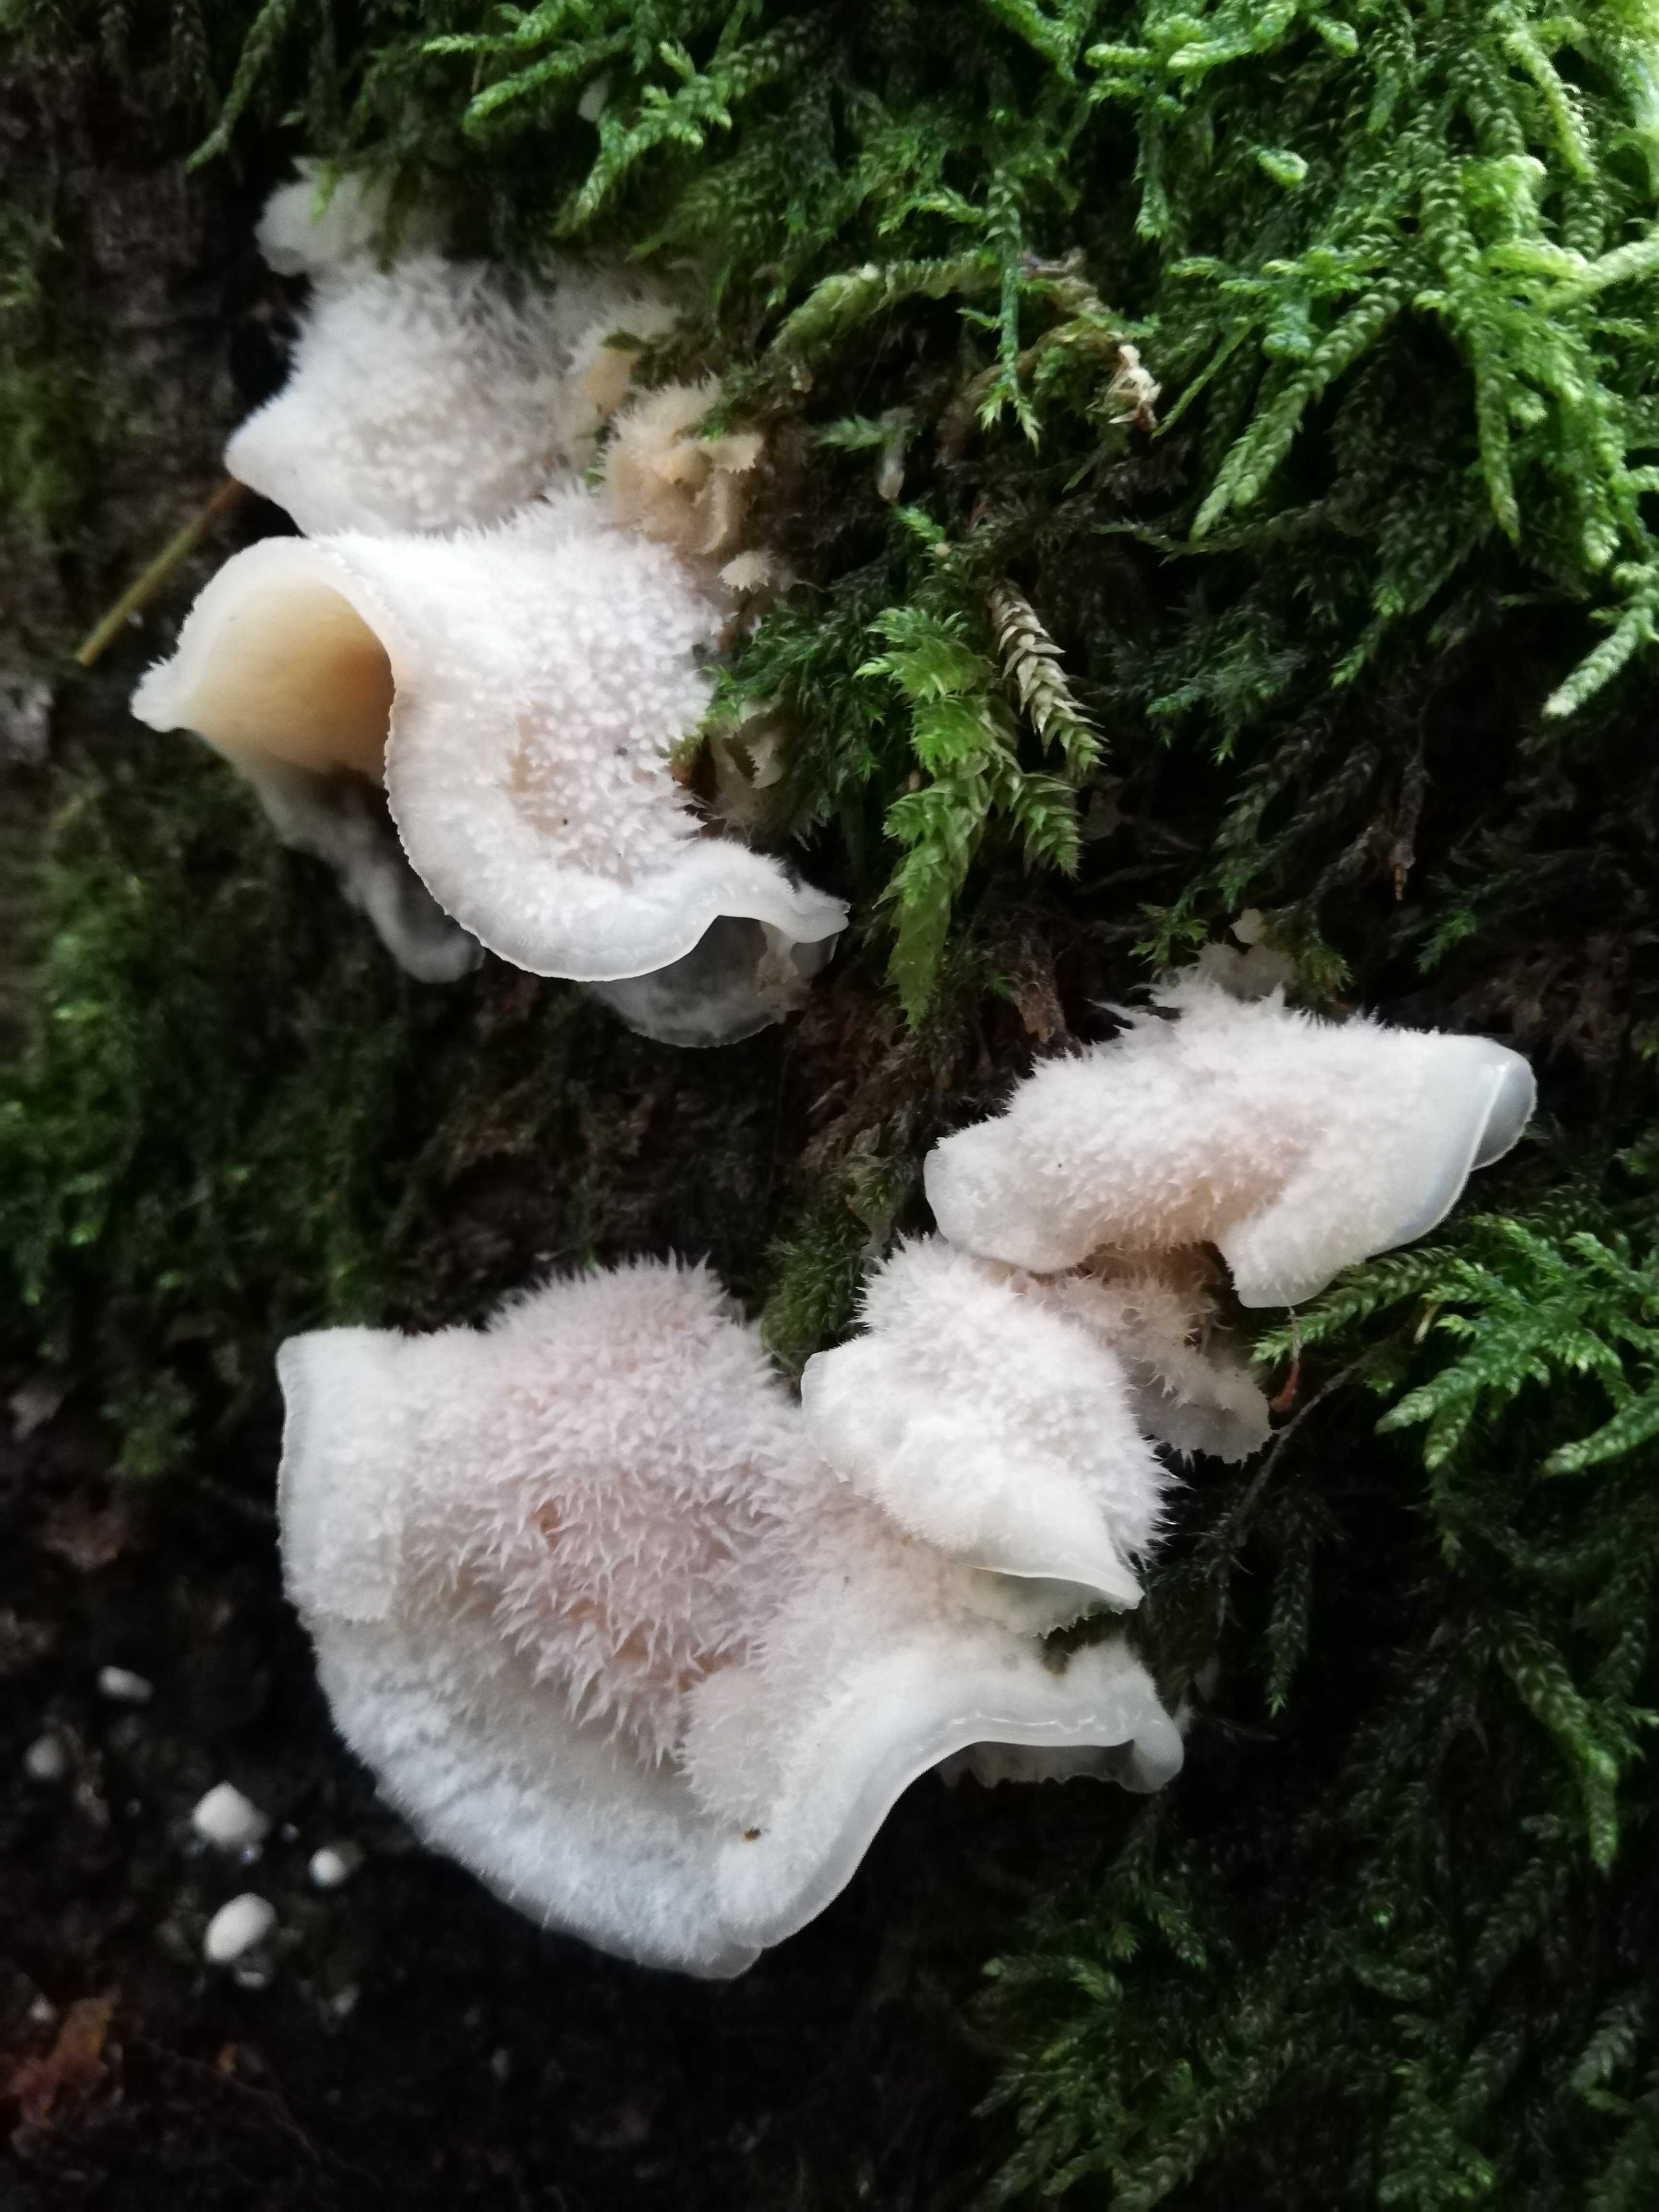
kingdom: Fungi
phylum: Basidiomycota
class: Agaricomycetes
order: Polyporales
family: Meruliaceae
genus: Phlebia
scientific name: Phlebia tremellosa
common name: bævrende åresvamp
